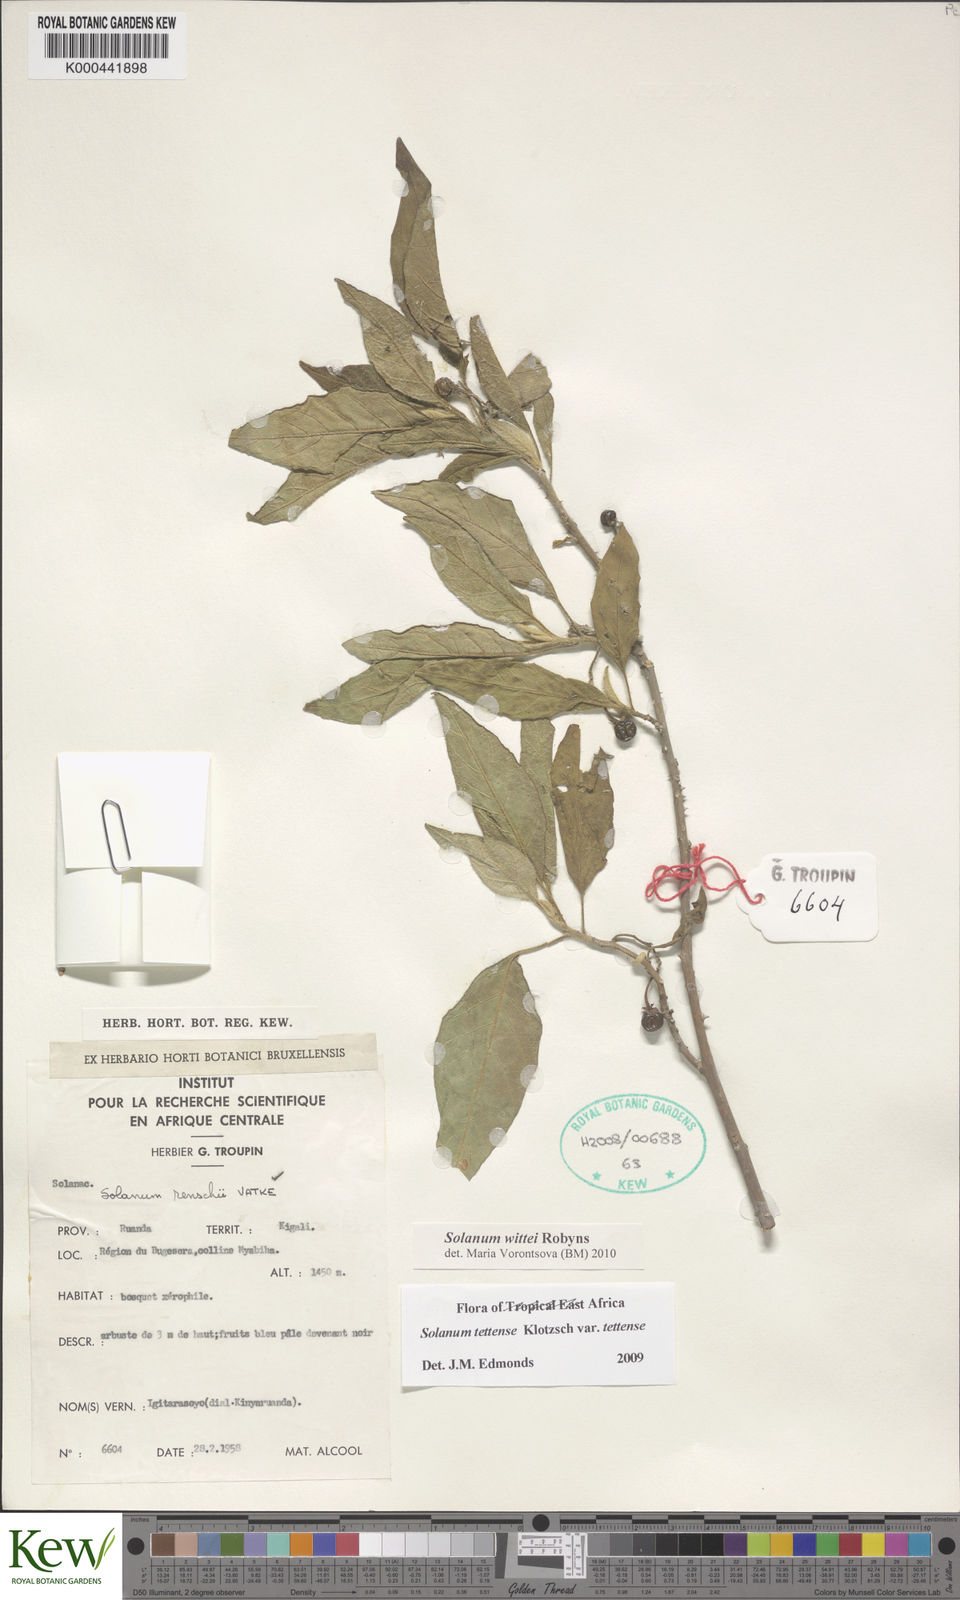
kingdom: Plantae
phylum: Tracheophyta
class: Magnoliopsida
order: Solanales
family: Solanaceae
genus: Solanum
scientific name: Solanum wittei
